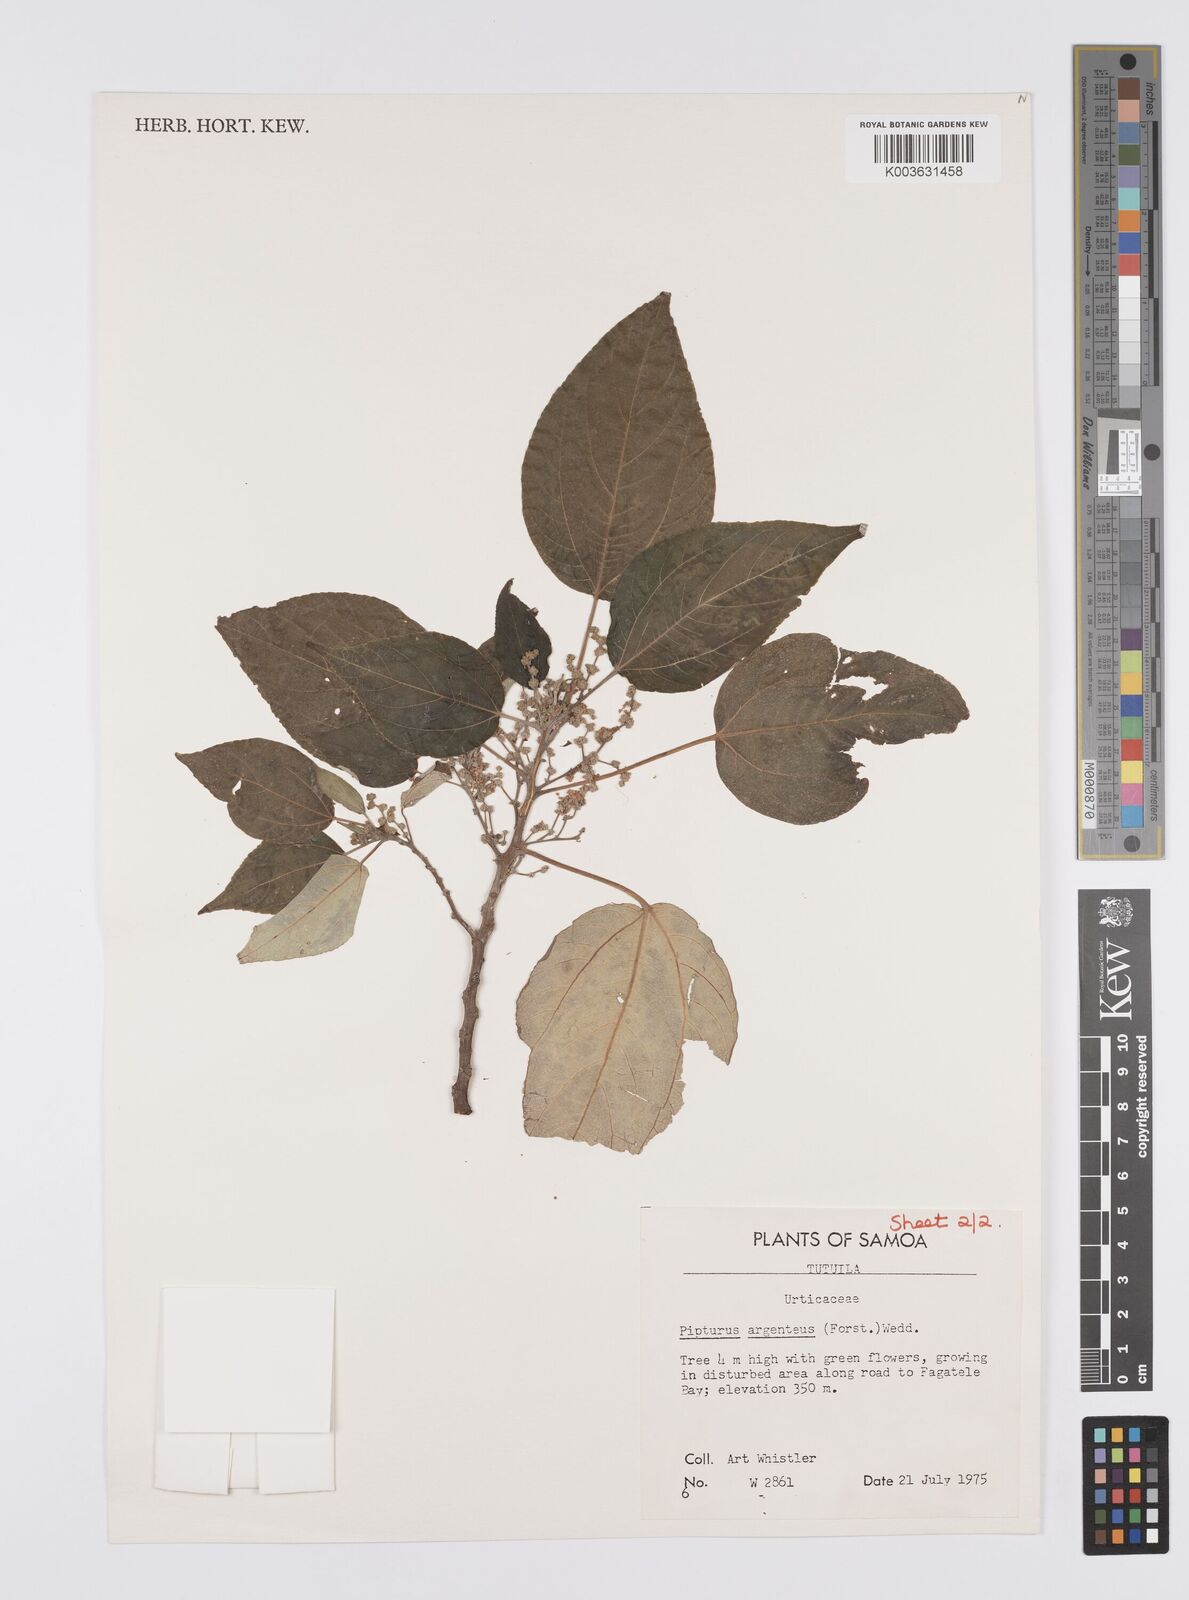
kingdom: Plantae
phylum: Tracheophyta
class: Magnoliopsida
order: Rosales
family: Urticaceae
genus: Pipturus
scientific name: Pipturus argenteus
